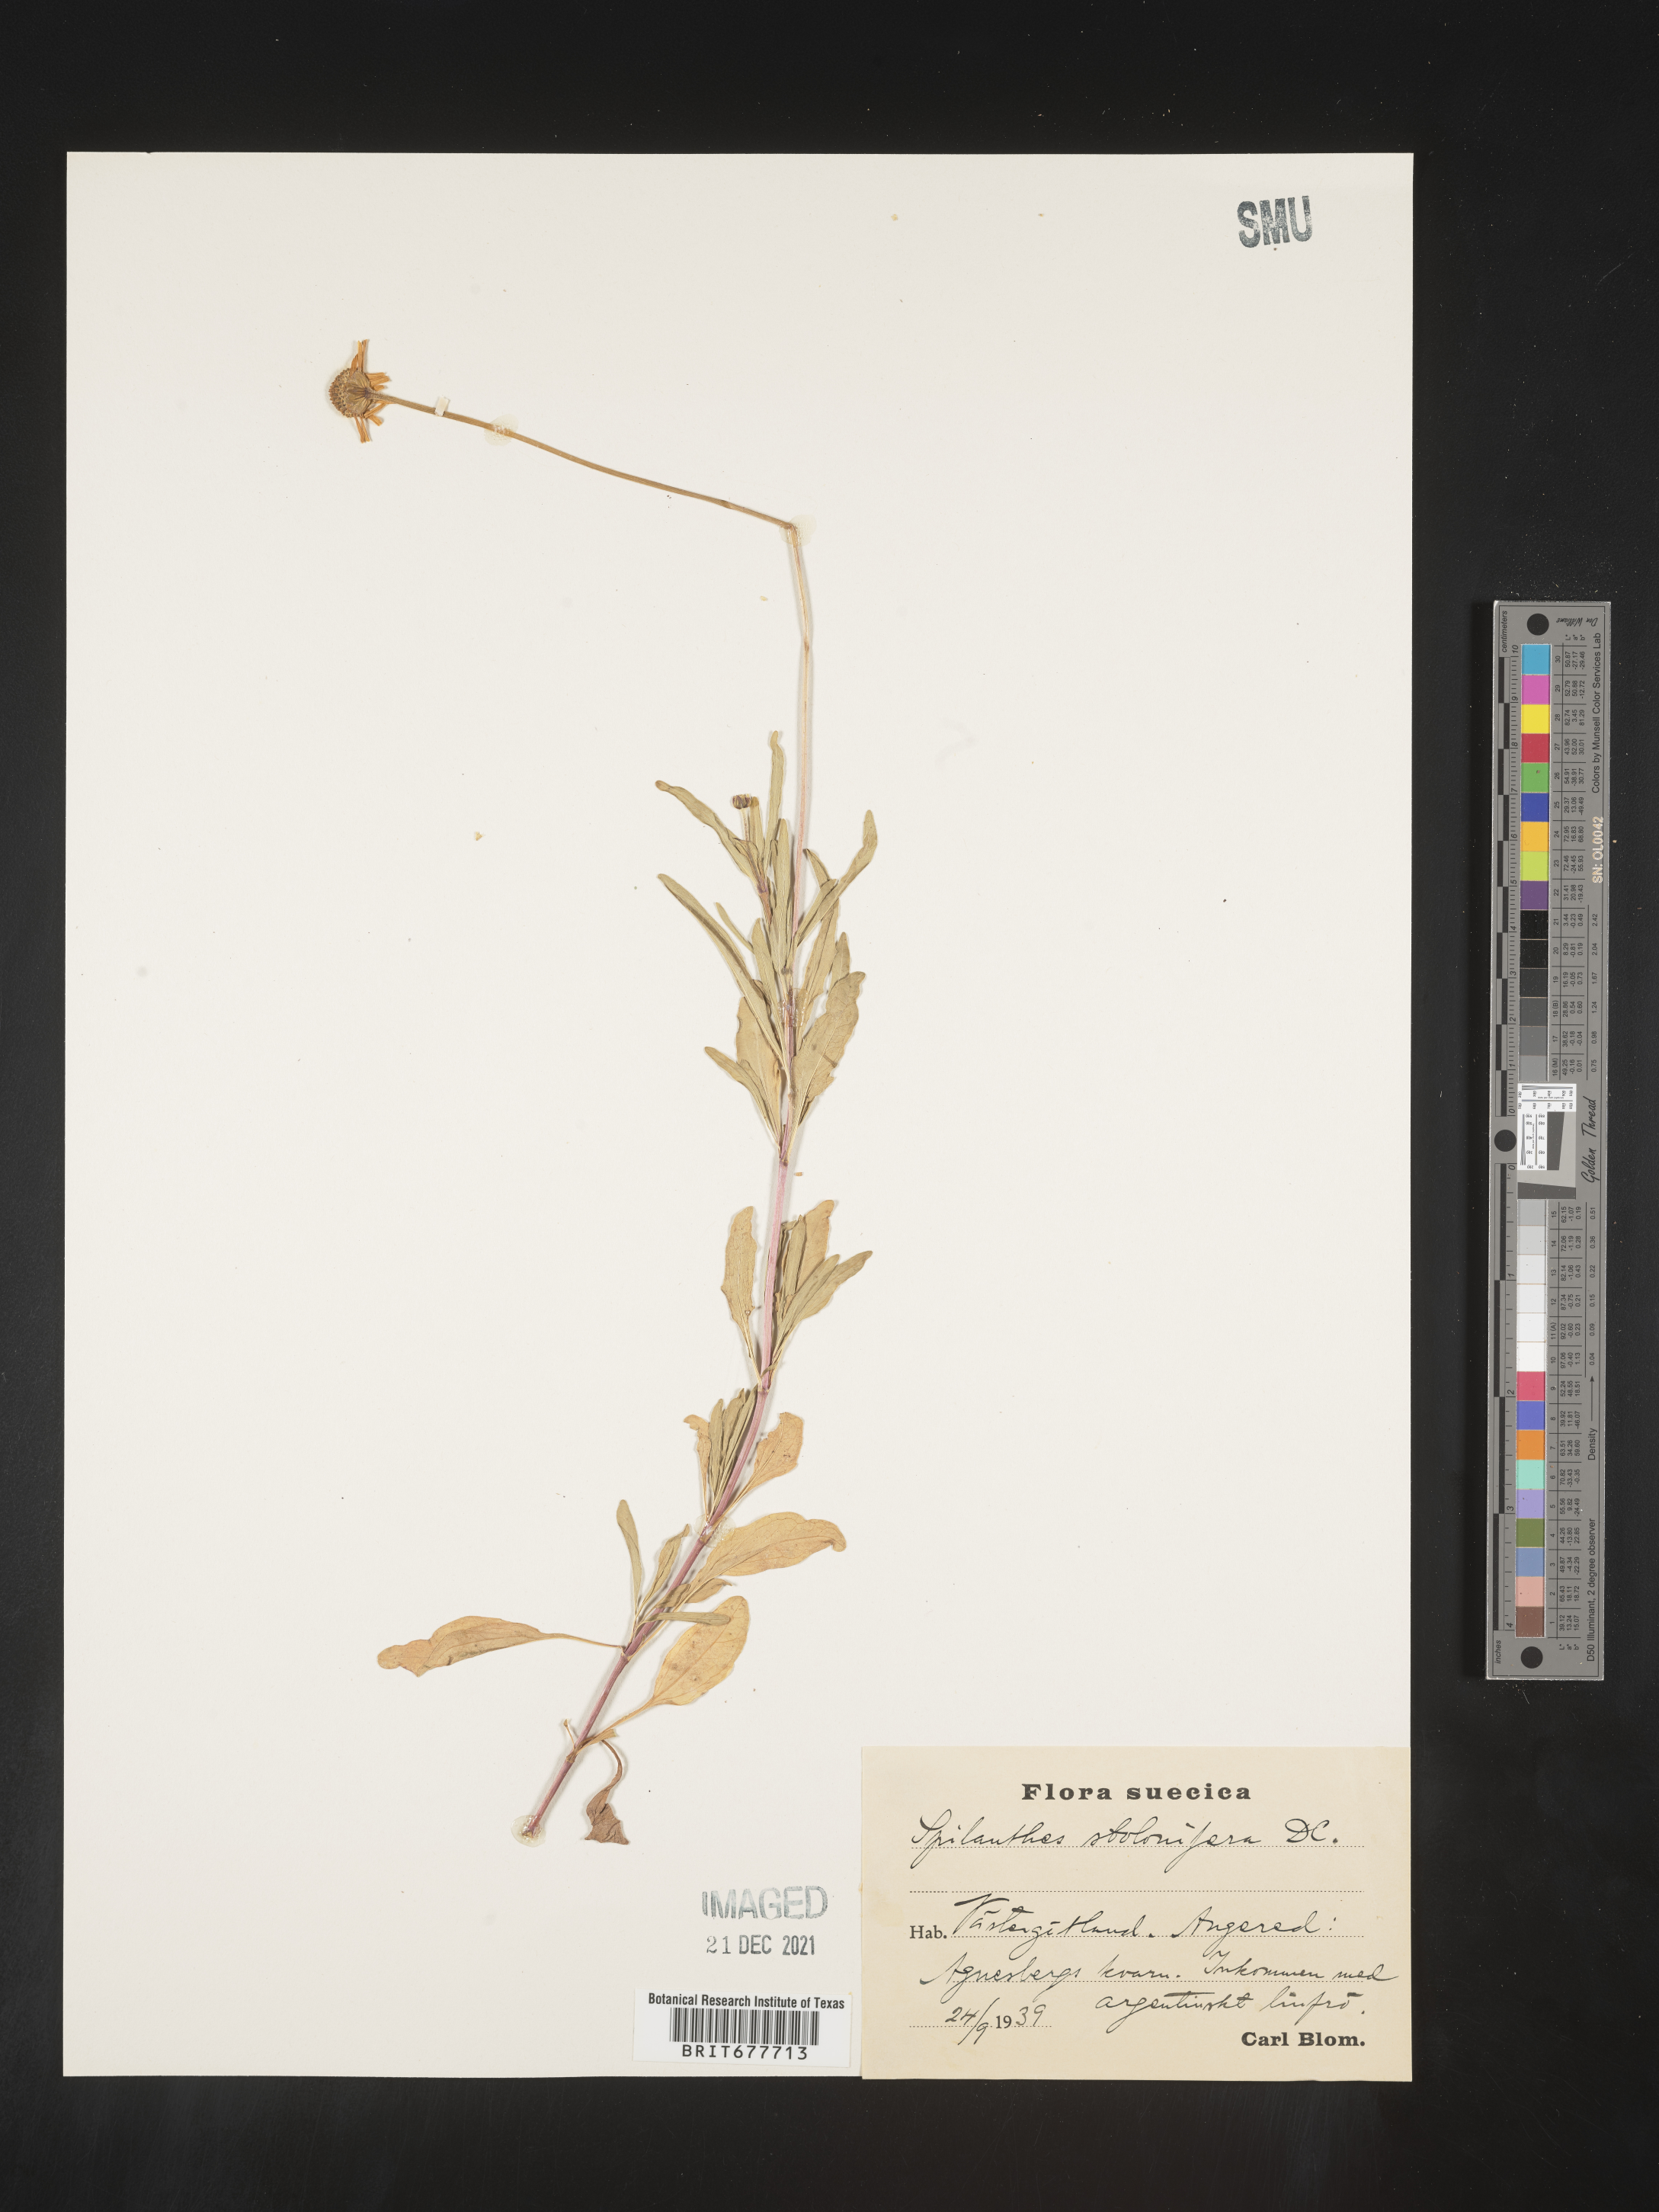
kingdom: Plantae
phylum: Tracheophyta
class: Magnoliopsida
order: Asterales
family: Asteraceae
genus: Acmella
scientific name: Acmella decumbens
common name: Creeping spotflower
